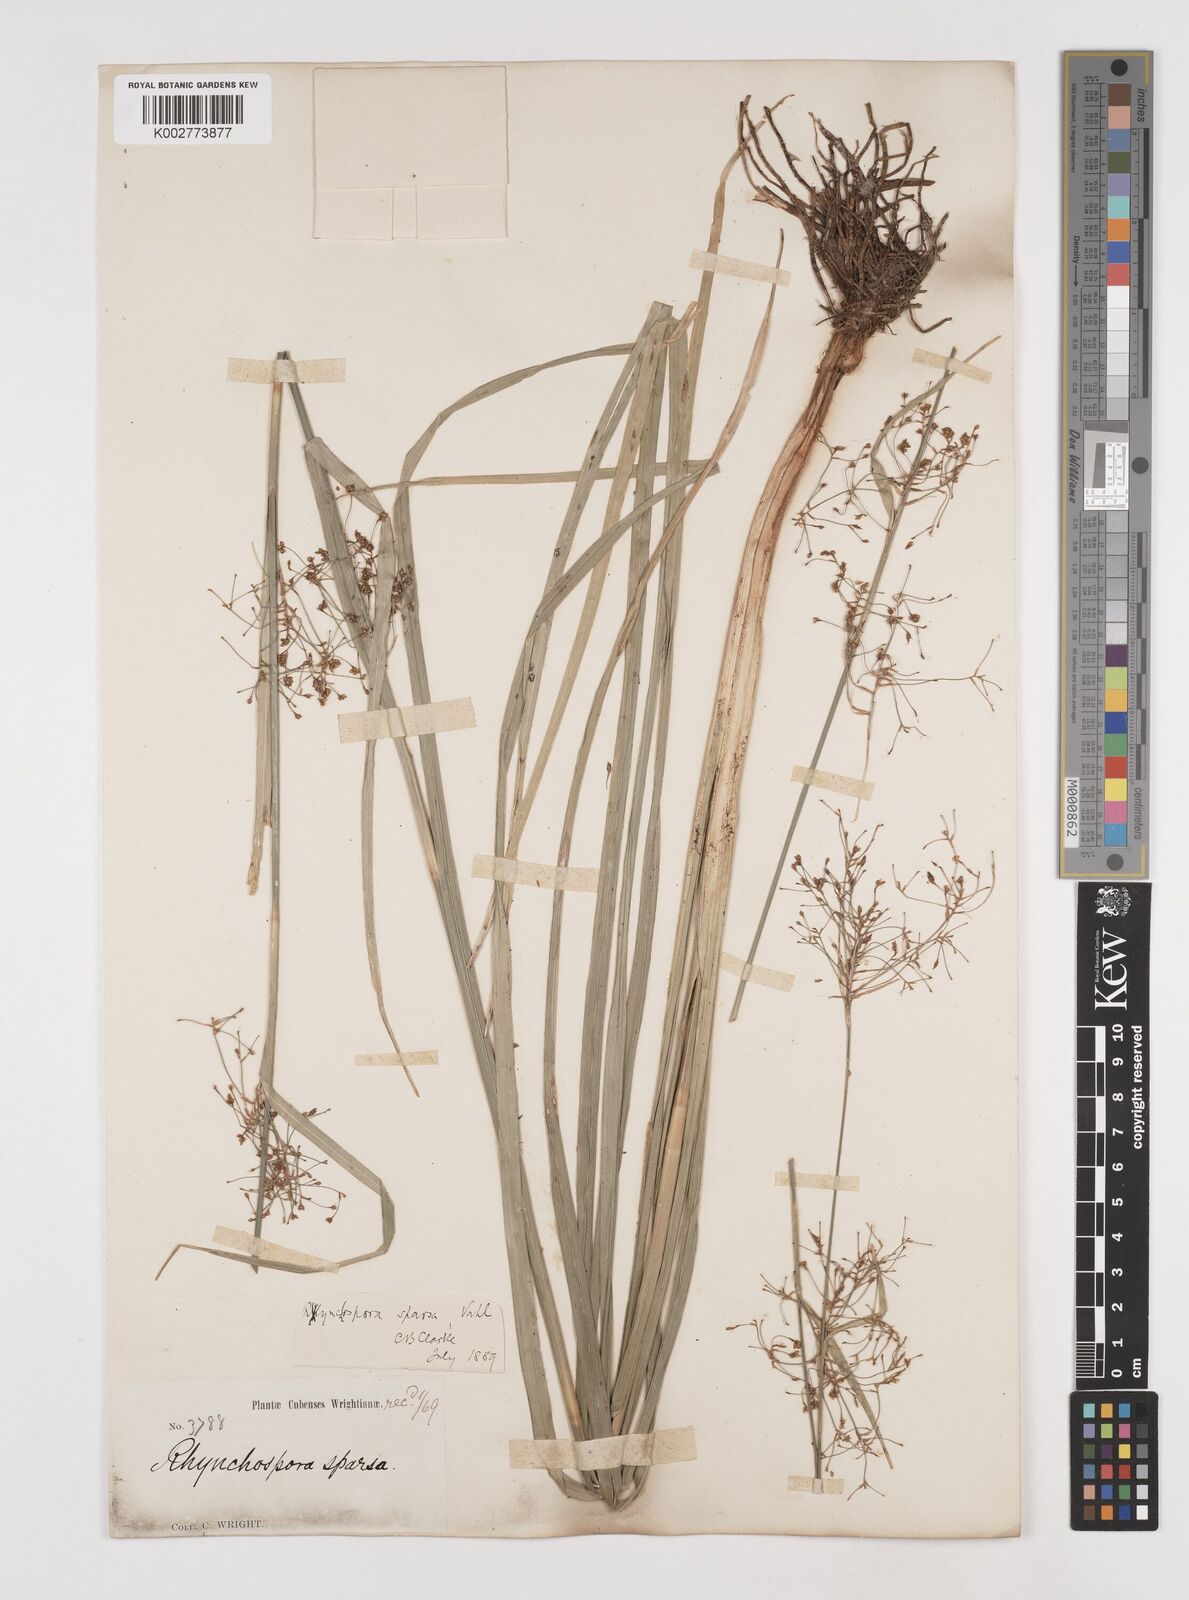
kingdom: Plantae
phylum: Tracheophyta
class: Liliopsida
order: Poales
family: Cyperaceae
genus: Rhynchospora
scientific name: Rhynchospora miliacea
